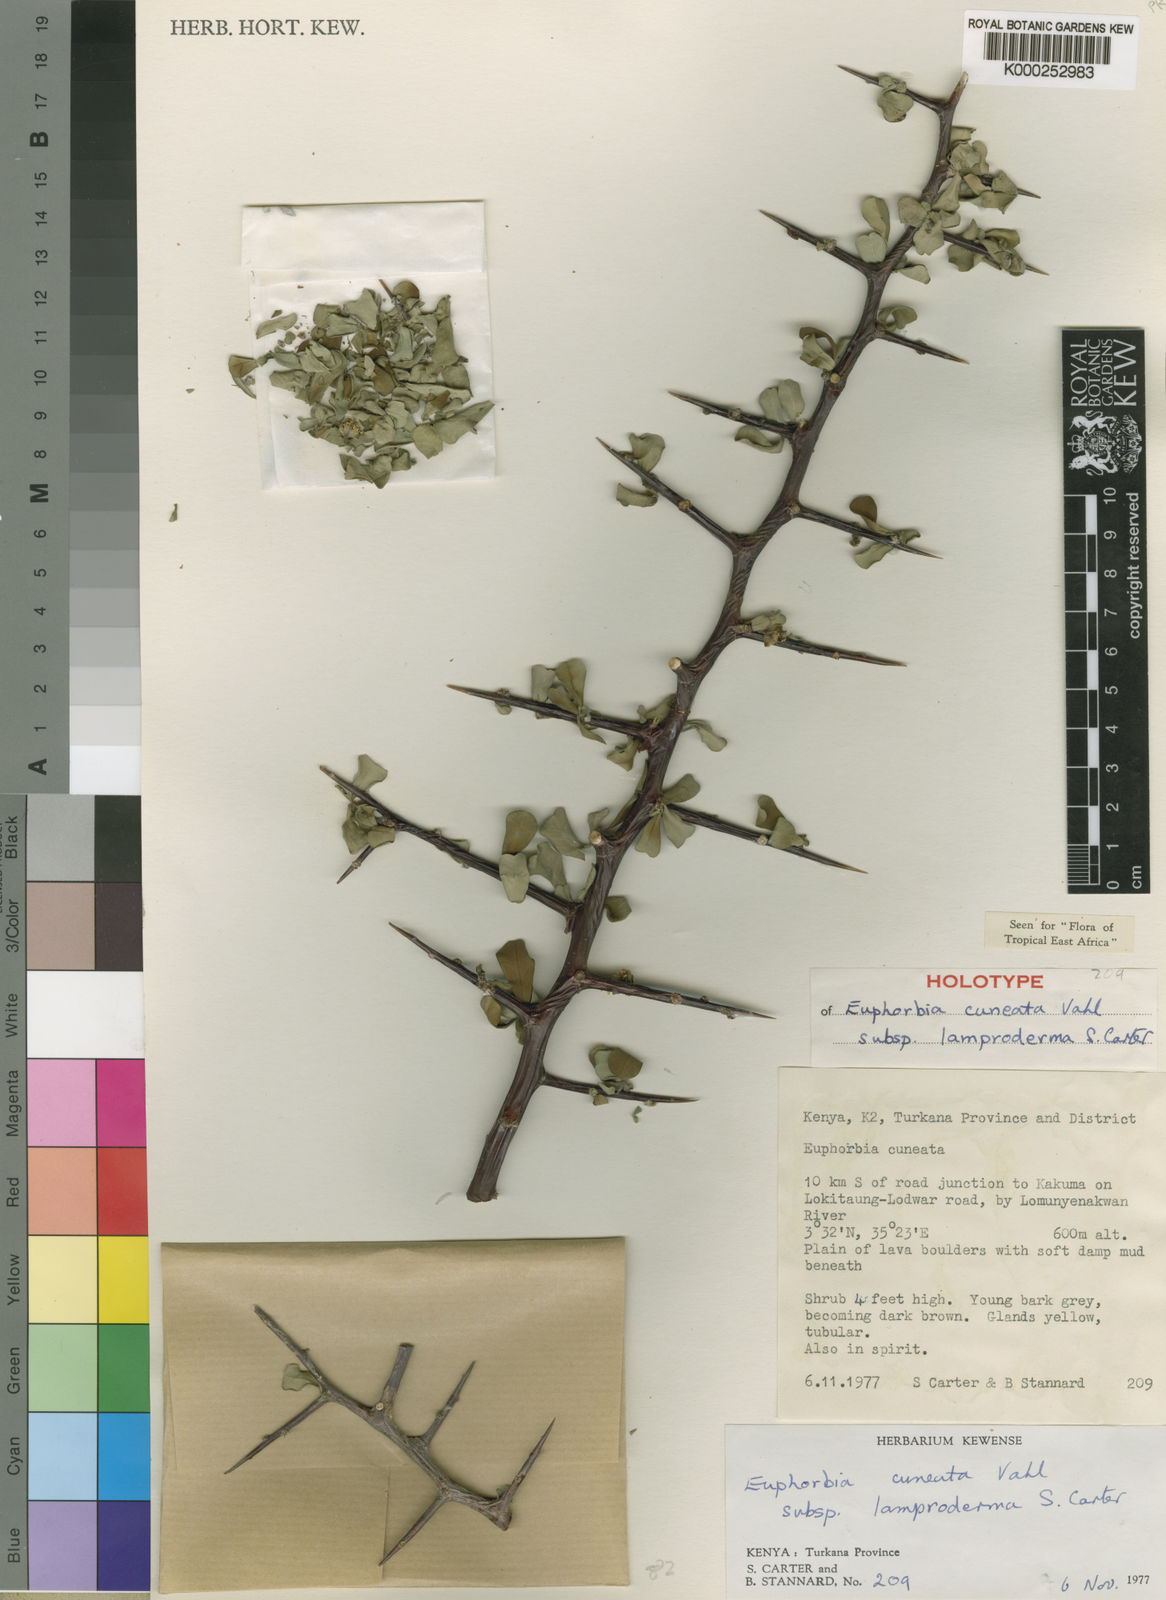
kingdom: Plantae
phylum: Tracheophyta
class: Magnoliopsida
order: Malpighiales
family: Euphorbiaceae
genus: Euphorbia
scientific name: Euphorbia cuneata
